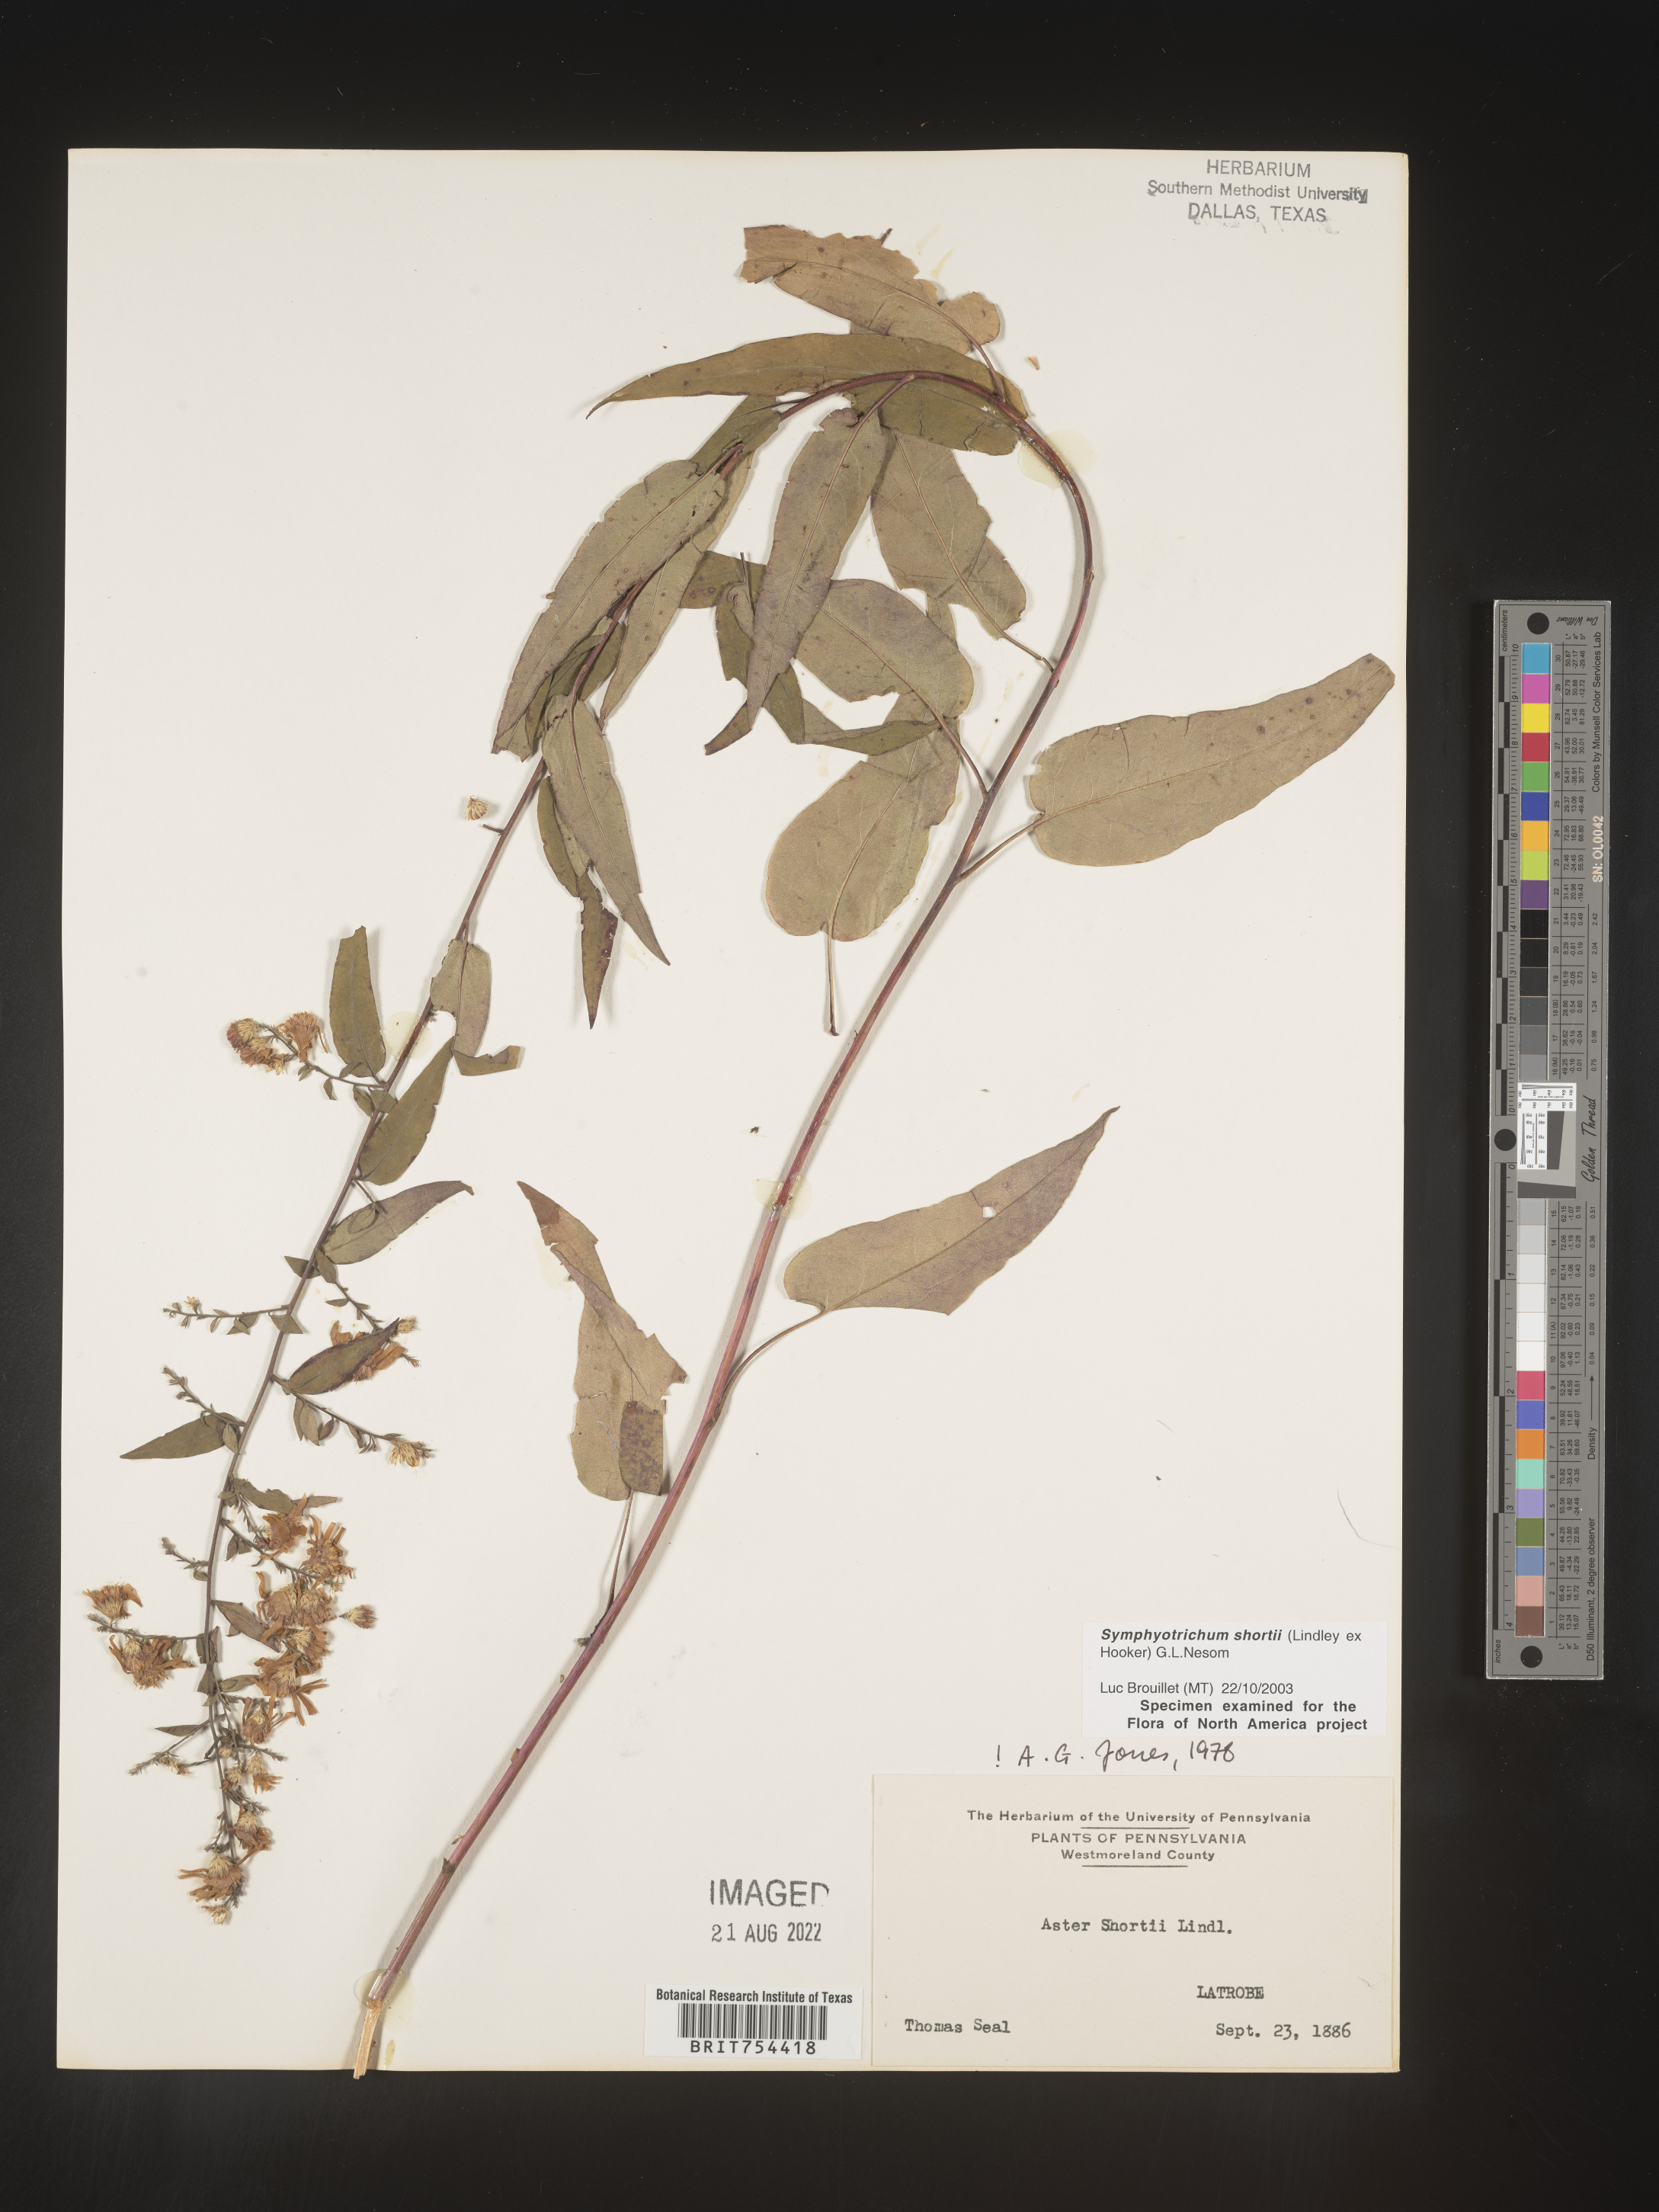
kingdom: Plantae
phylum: Tracheophyta
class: Magnoliopsida
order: Asterales
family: Asteraceae
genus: Symphyotrichum
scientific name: Symphyotrichum shortii
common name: Short's aster
